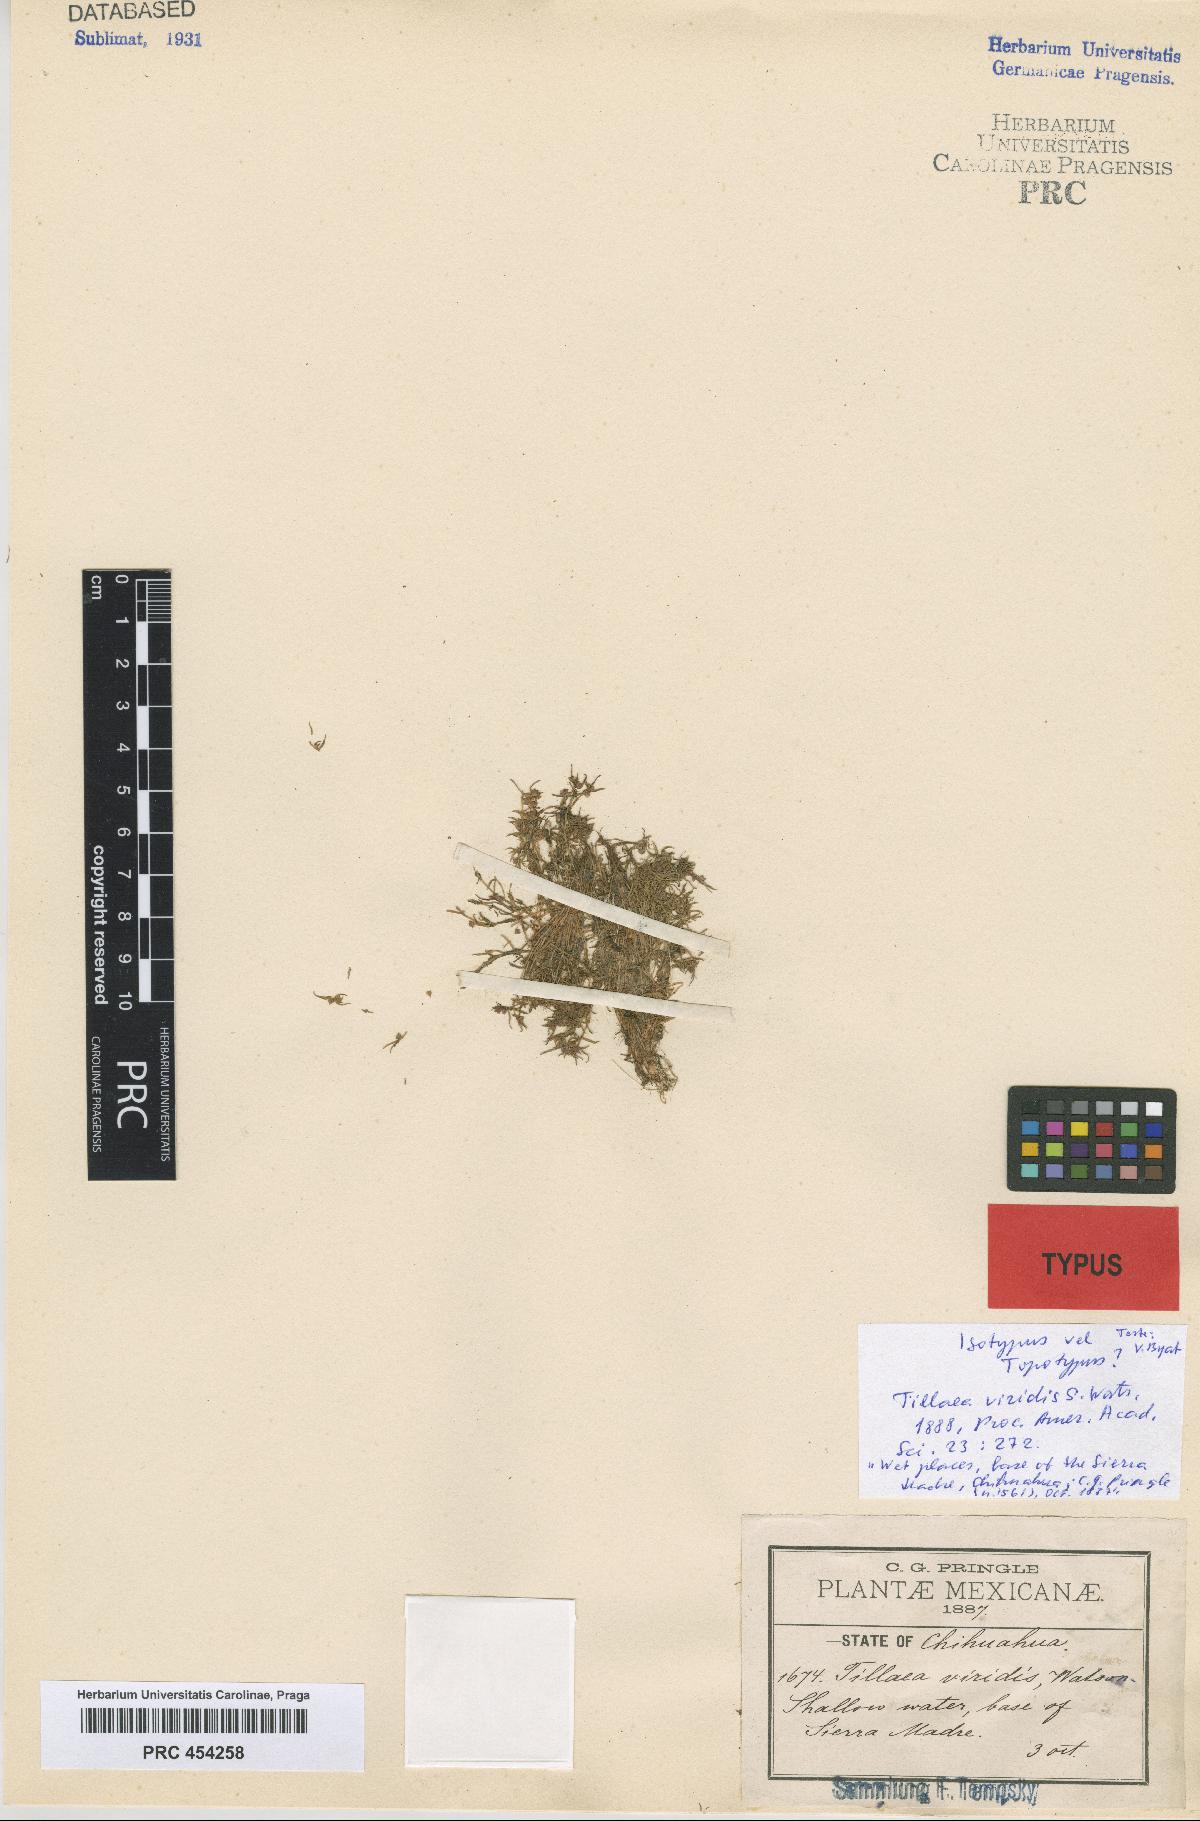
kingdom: Plantae
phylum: Tracheophyta
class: Magnoliopsida
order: Saxifragales
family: Crassulaceae
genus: Crassula
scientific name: Crassula viridis
